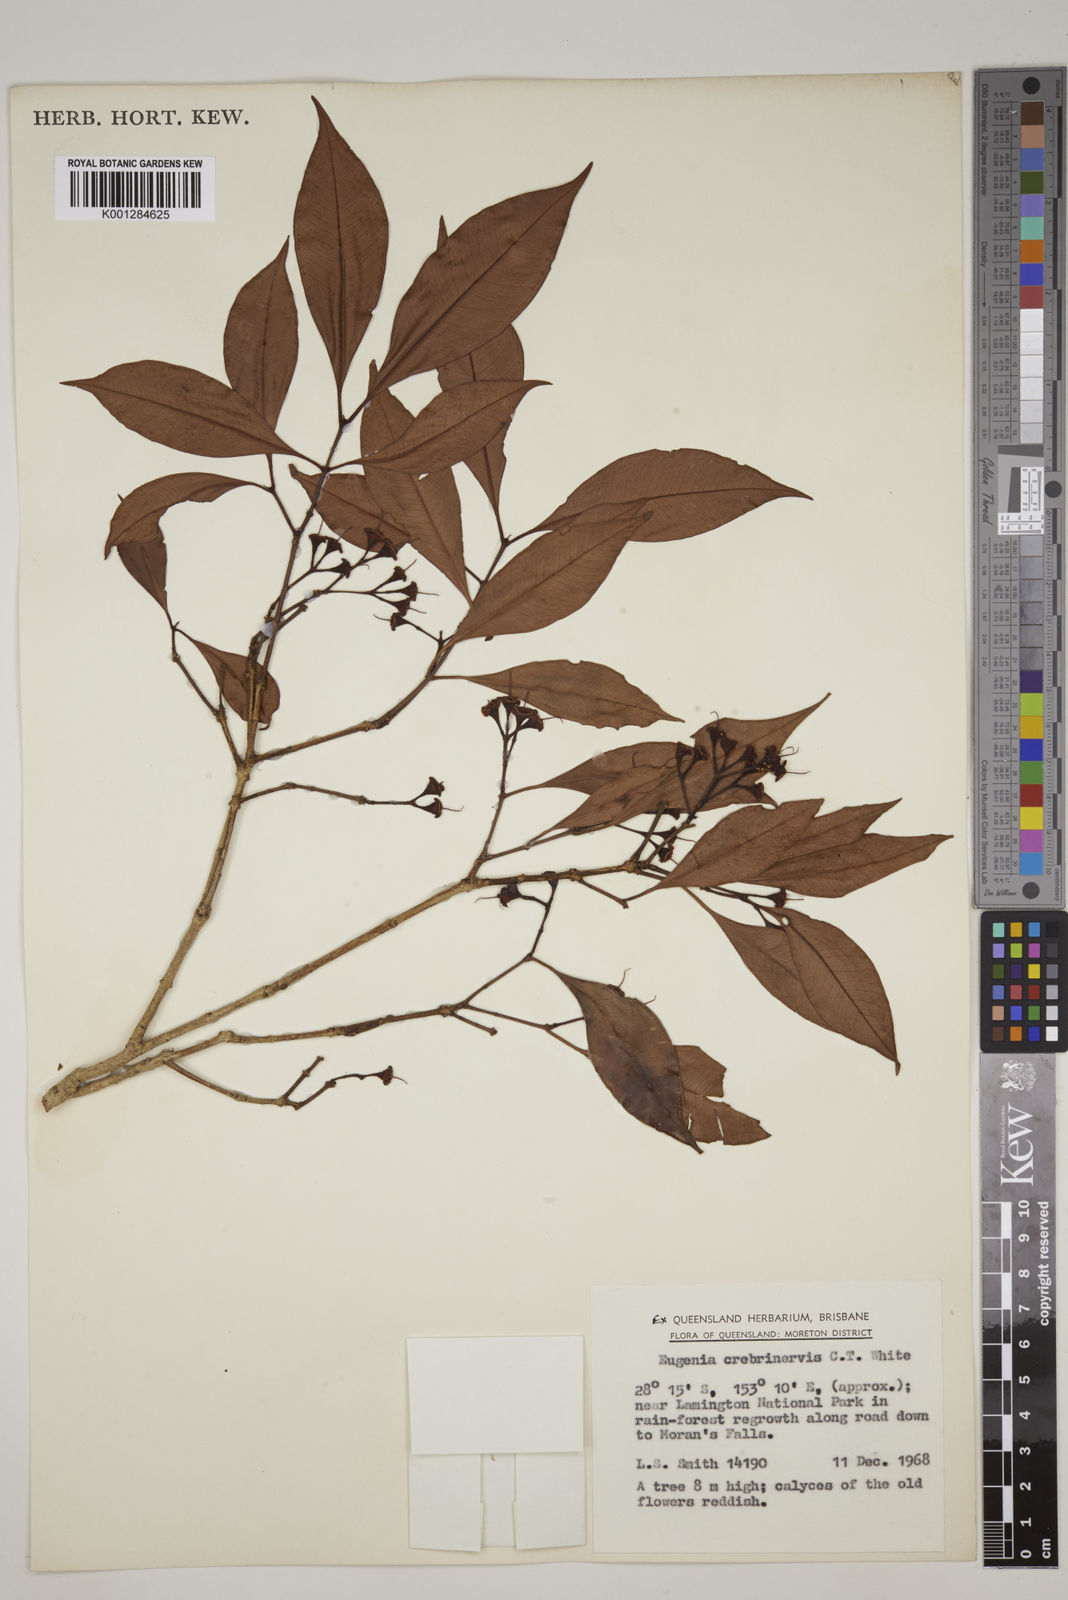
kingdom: Plantae
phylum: Tracheophyta
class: Magnoliopsida
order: Myrtales
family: Myrtaceae
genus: Syzygium
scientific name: Syzygium crebrinerve
